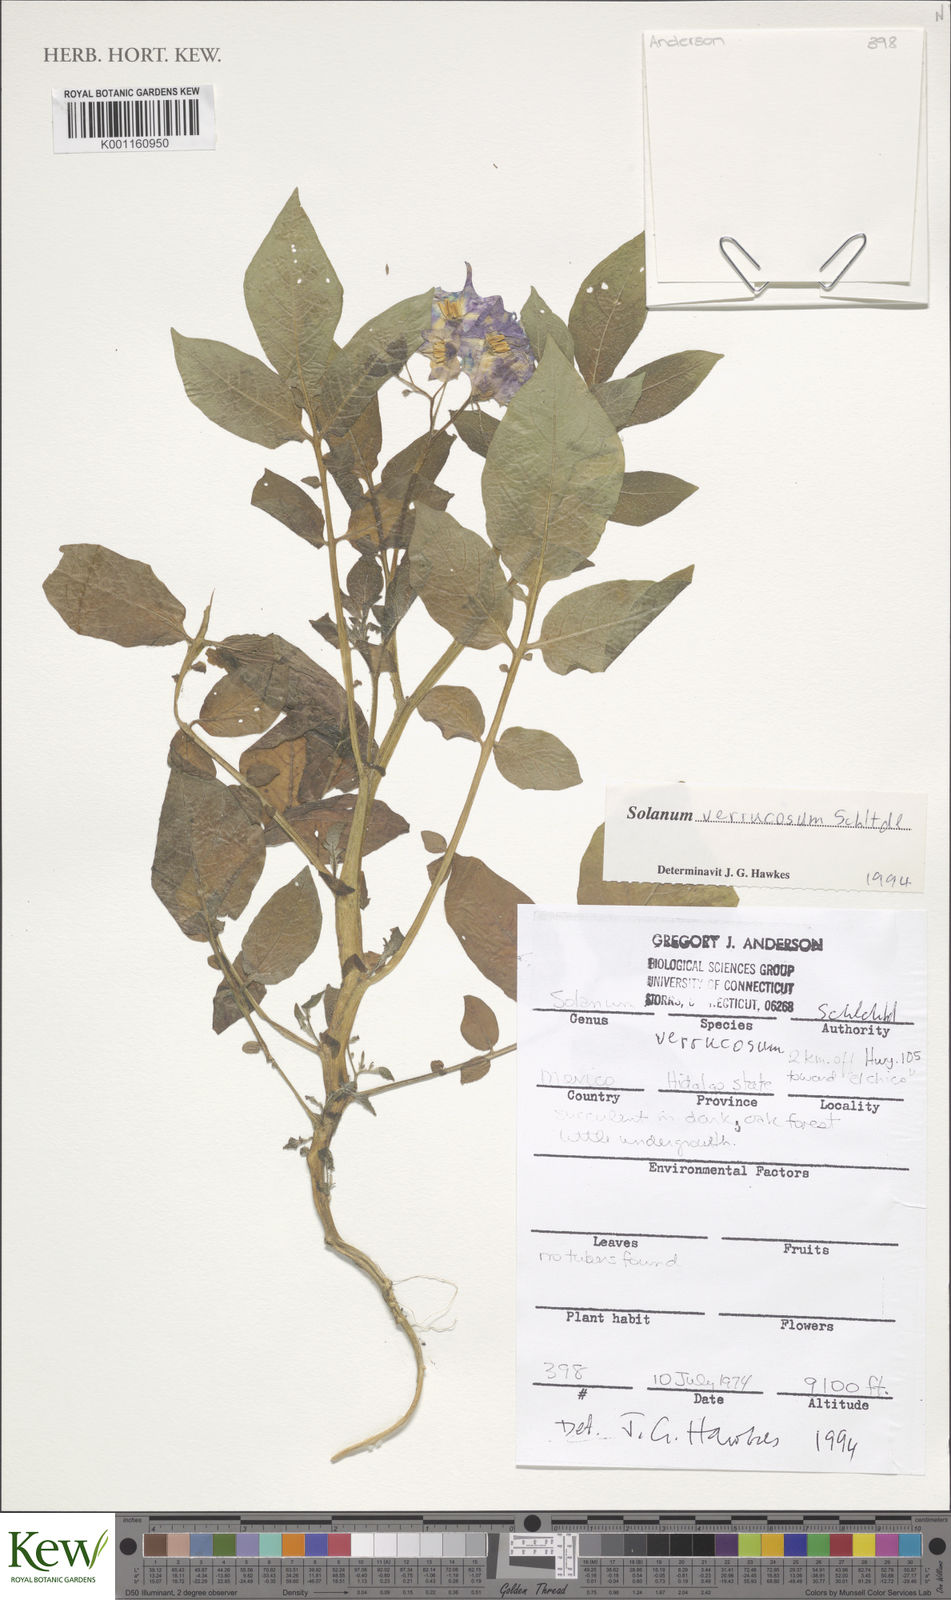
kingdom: Plantae
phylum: Tracheophyta
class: Magnoliopsida
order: Solanales
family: Solanaceae
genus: Solanum
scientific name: Solanum verrucosum
